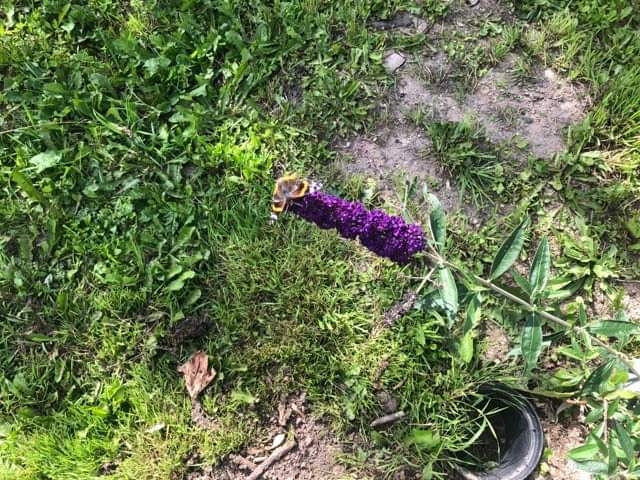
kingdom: Animalia
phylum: Arthropoda
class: Insecta
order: Lepidoptera
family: Nymphalidae
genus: Vanessa
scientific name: Vanessa atalanta
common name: Admiral
